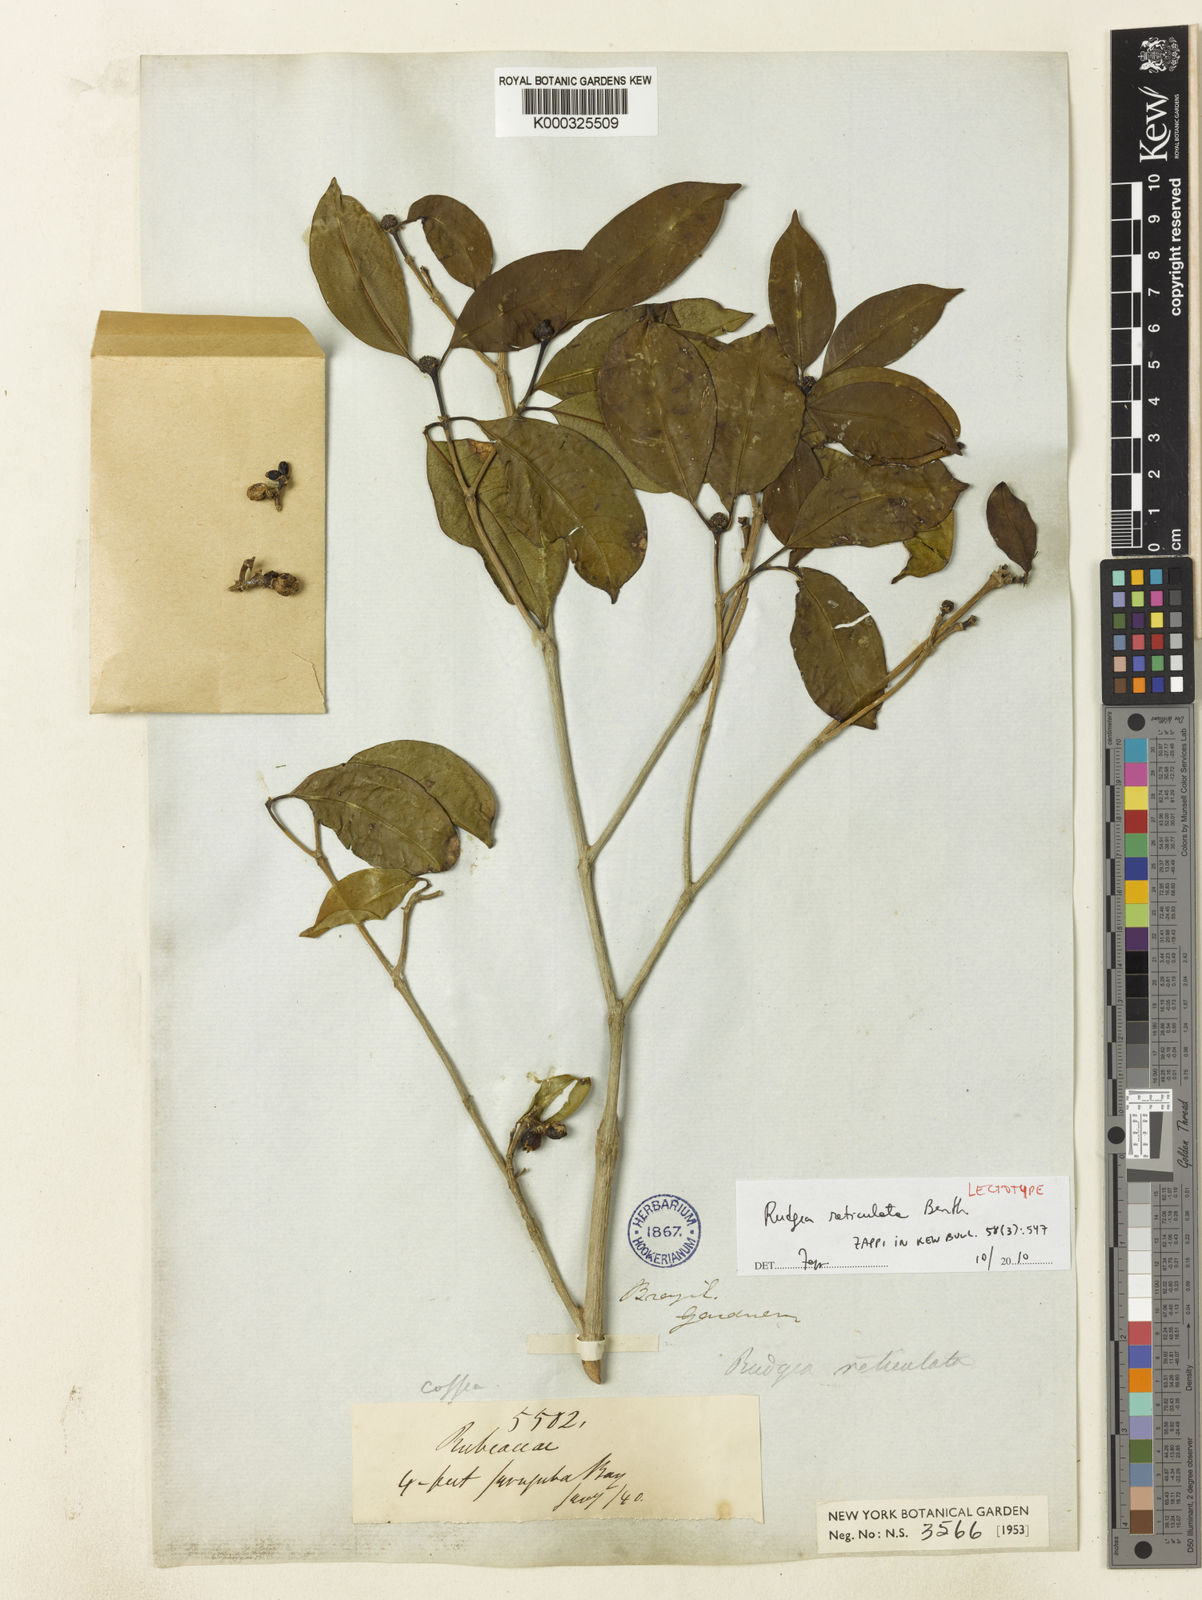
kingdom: Plantae
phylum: Tracheophyta
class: Magnoliopsida
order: Gentianales
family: Rubiaceae
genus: Rudgea
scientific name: Rudgea reticulata
